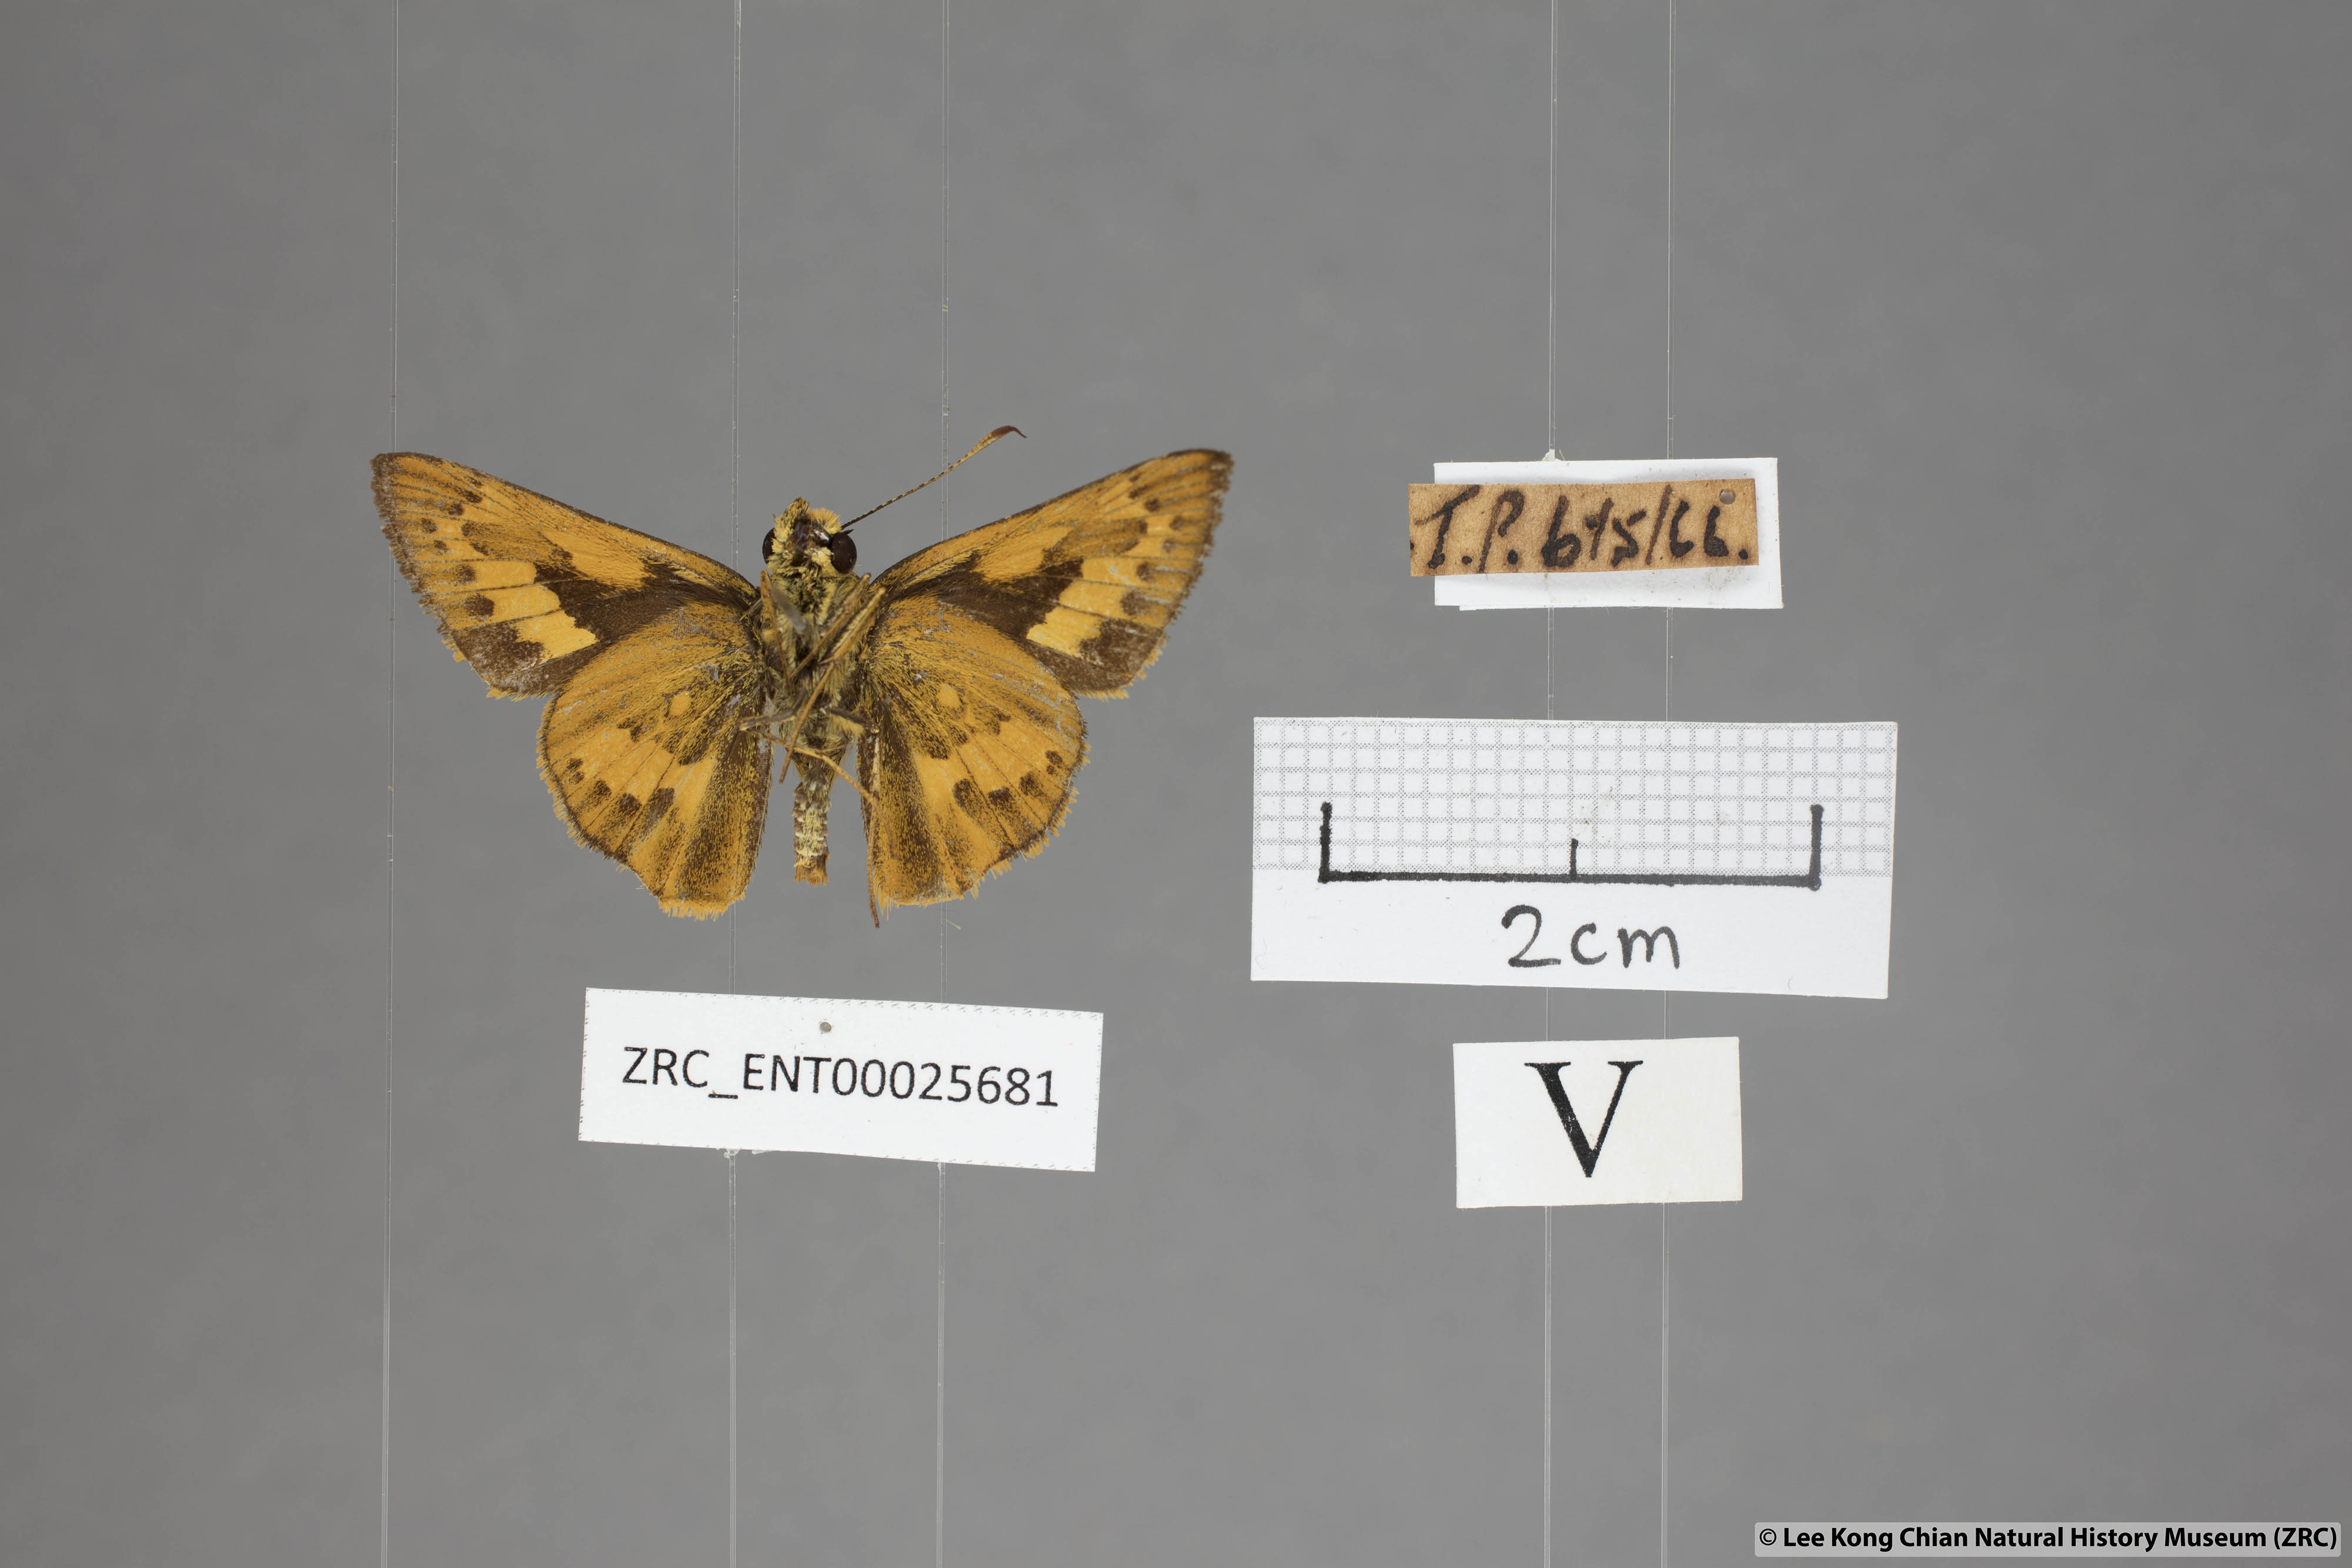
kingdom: Animalia
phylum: Arthropoda
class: Insecta
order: Lepidoptera
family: Hesperiidae
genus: Telicota
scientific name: Telicota ohara
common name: Dark palm dart
